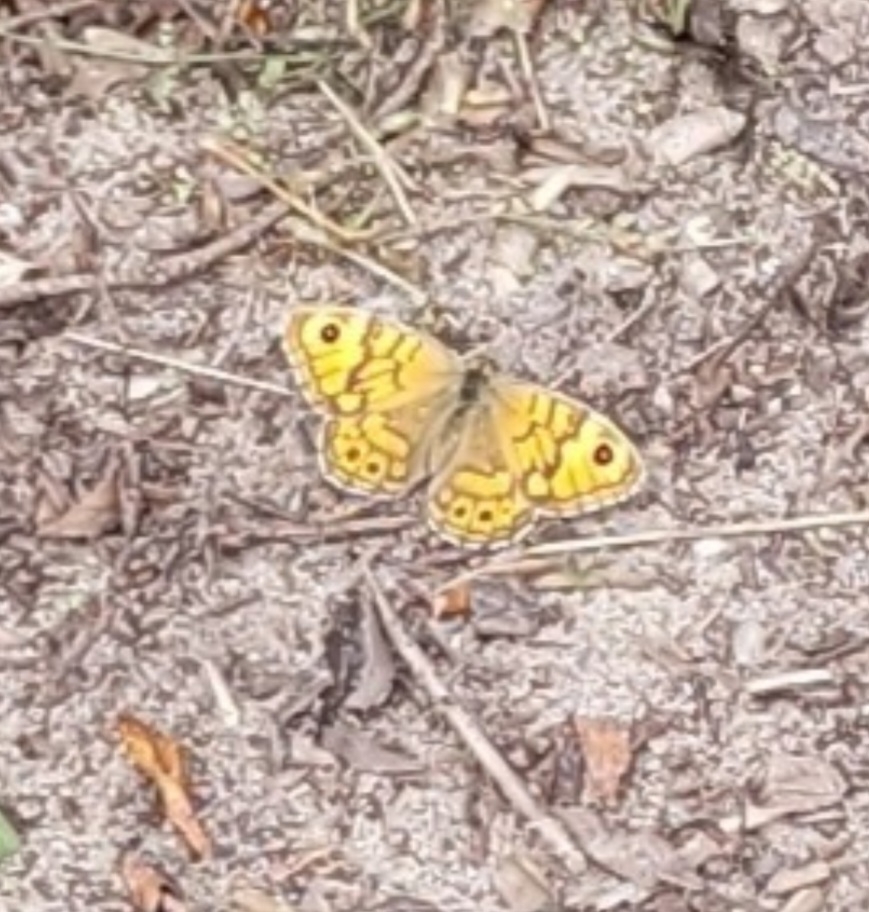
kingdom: Animalia
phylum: Arthropoda
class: Insecta
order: Lepidoptera
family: Nymphalidae
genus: Pararge
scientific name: Pararge Lasiommata megera
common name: Vejrandøje
